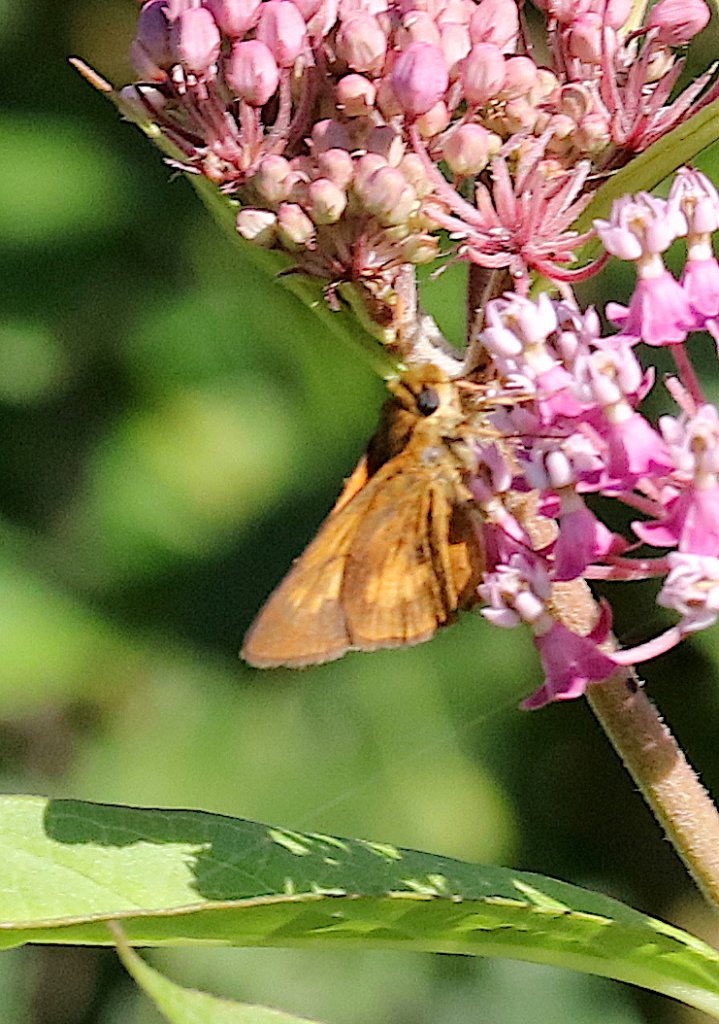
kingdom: Animalia
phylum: Arthropoda
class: Insecta
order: Lepidoptera
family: Hesperiidae
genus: Poanes
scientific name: Poanes massasoit
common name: Mulberry Wing
